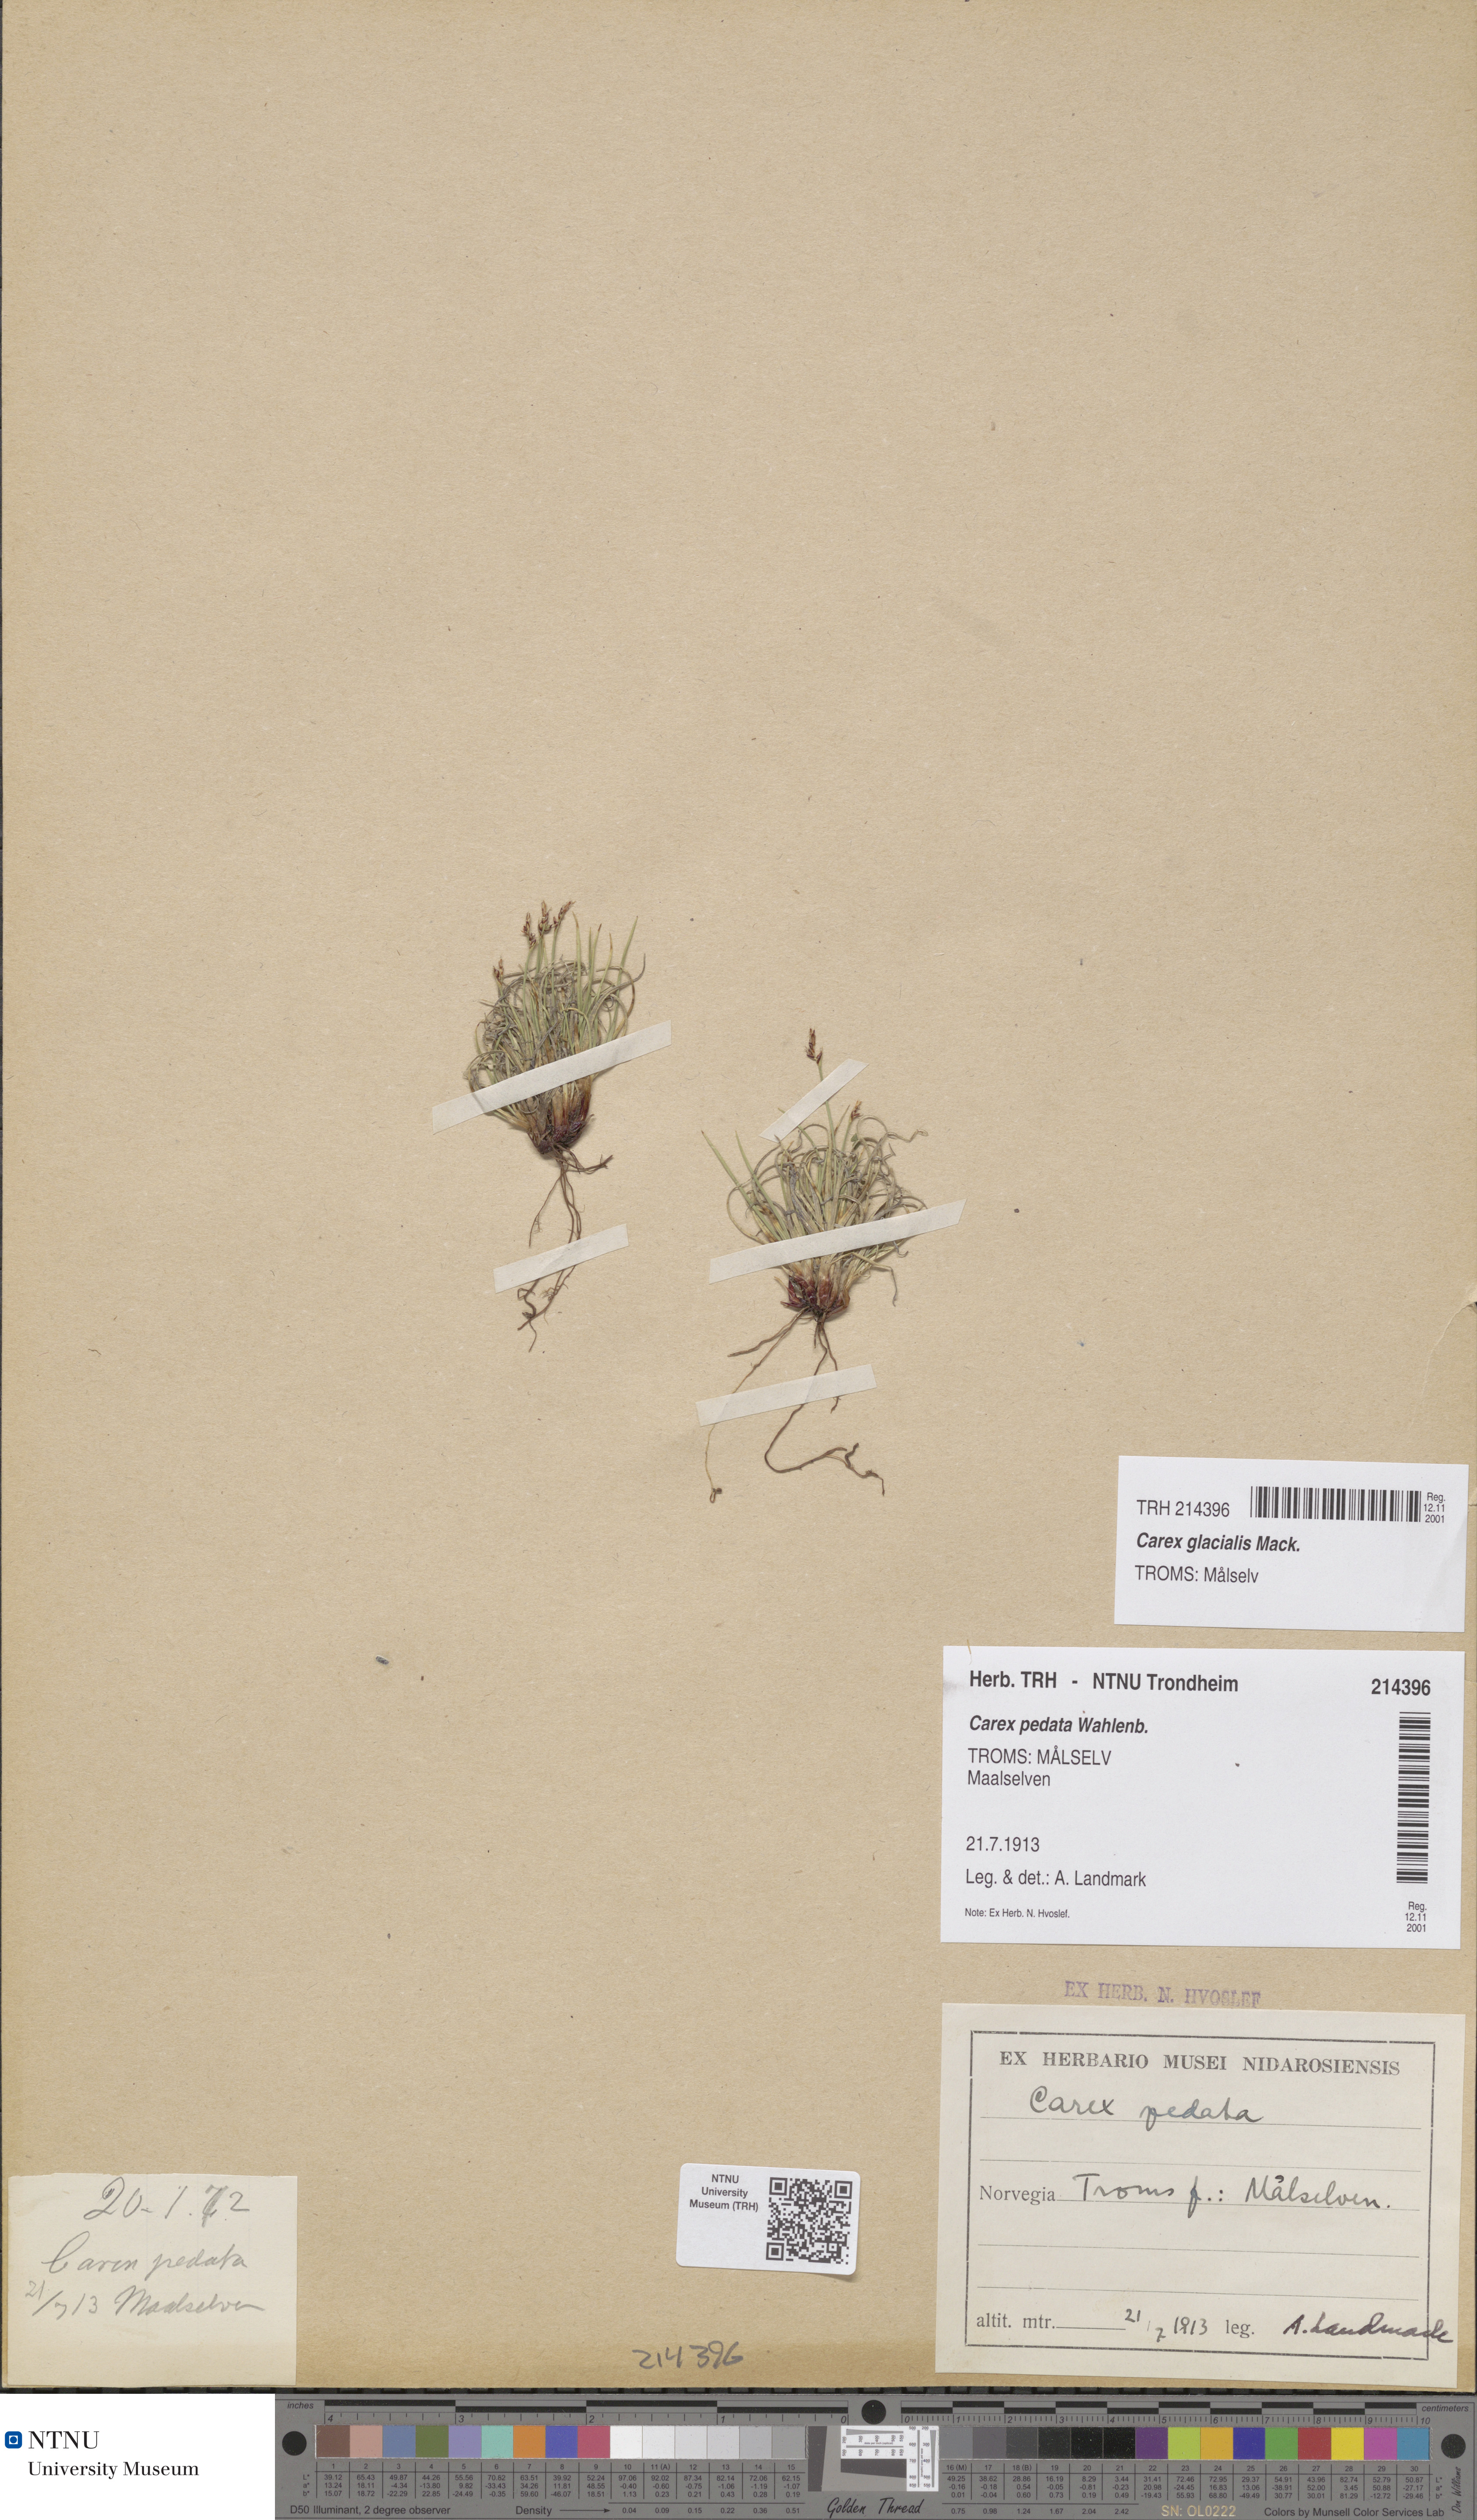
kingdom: Plantae
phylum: Tracheophyta
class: Liliopsida
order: Poales
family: Cyperaceae
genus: Carex
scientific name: Carex glacialis
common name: Newfoundland sedge
